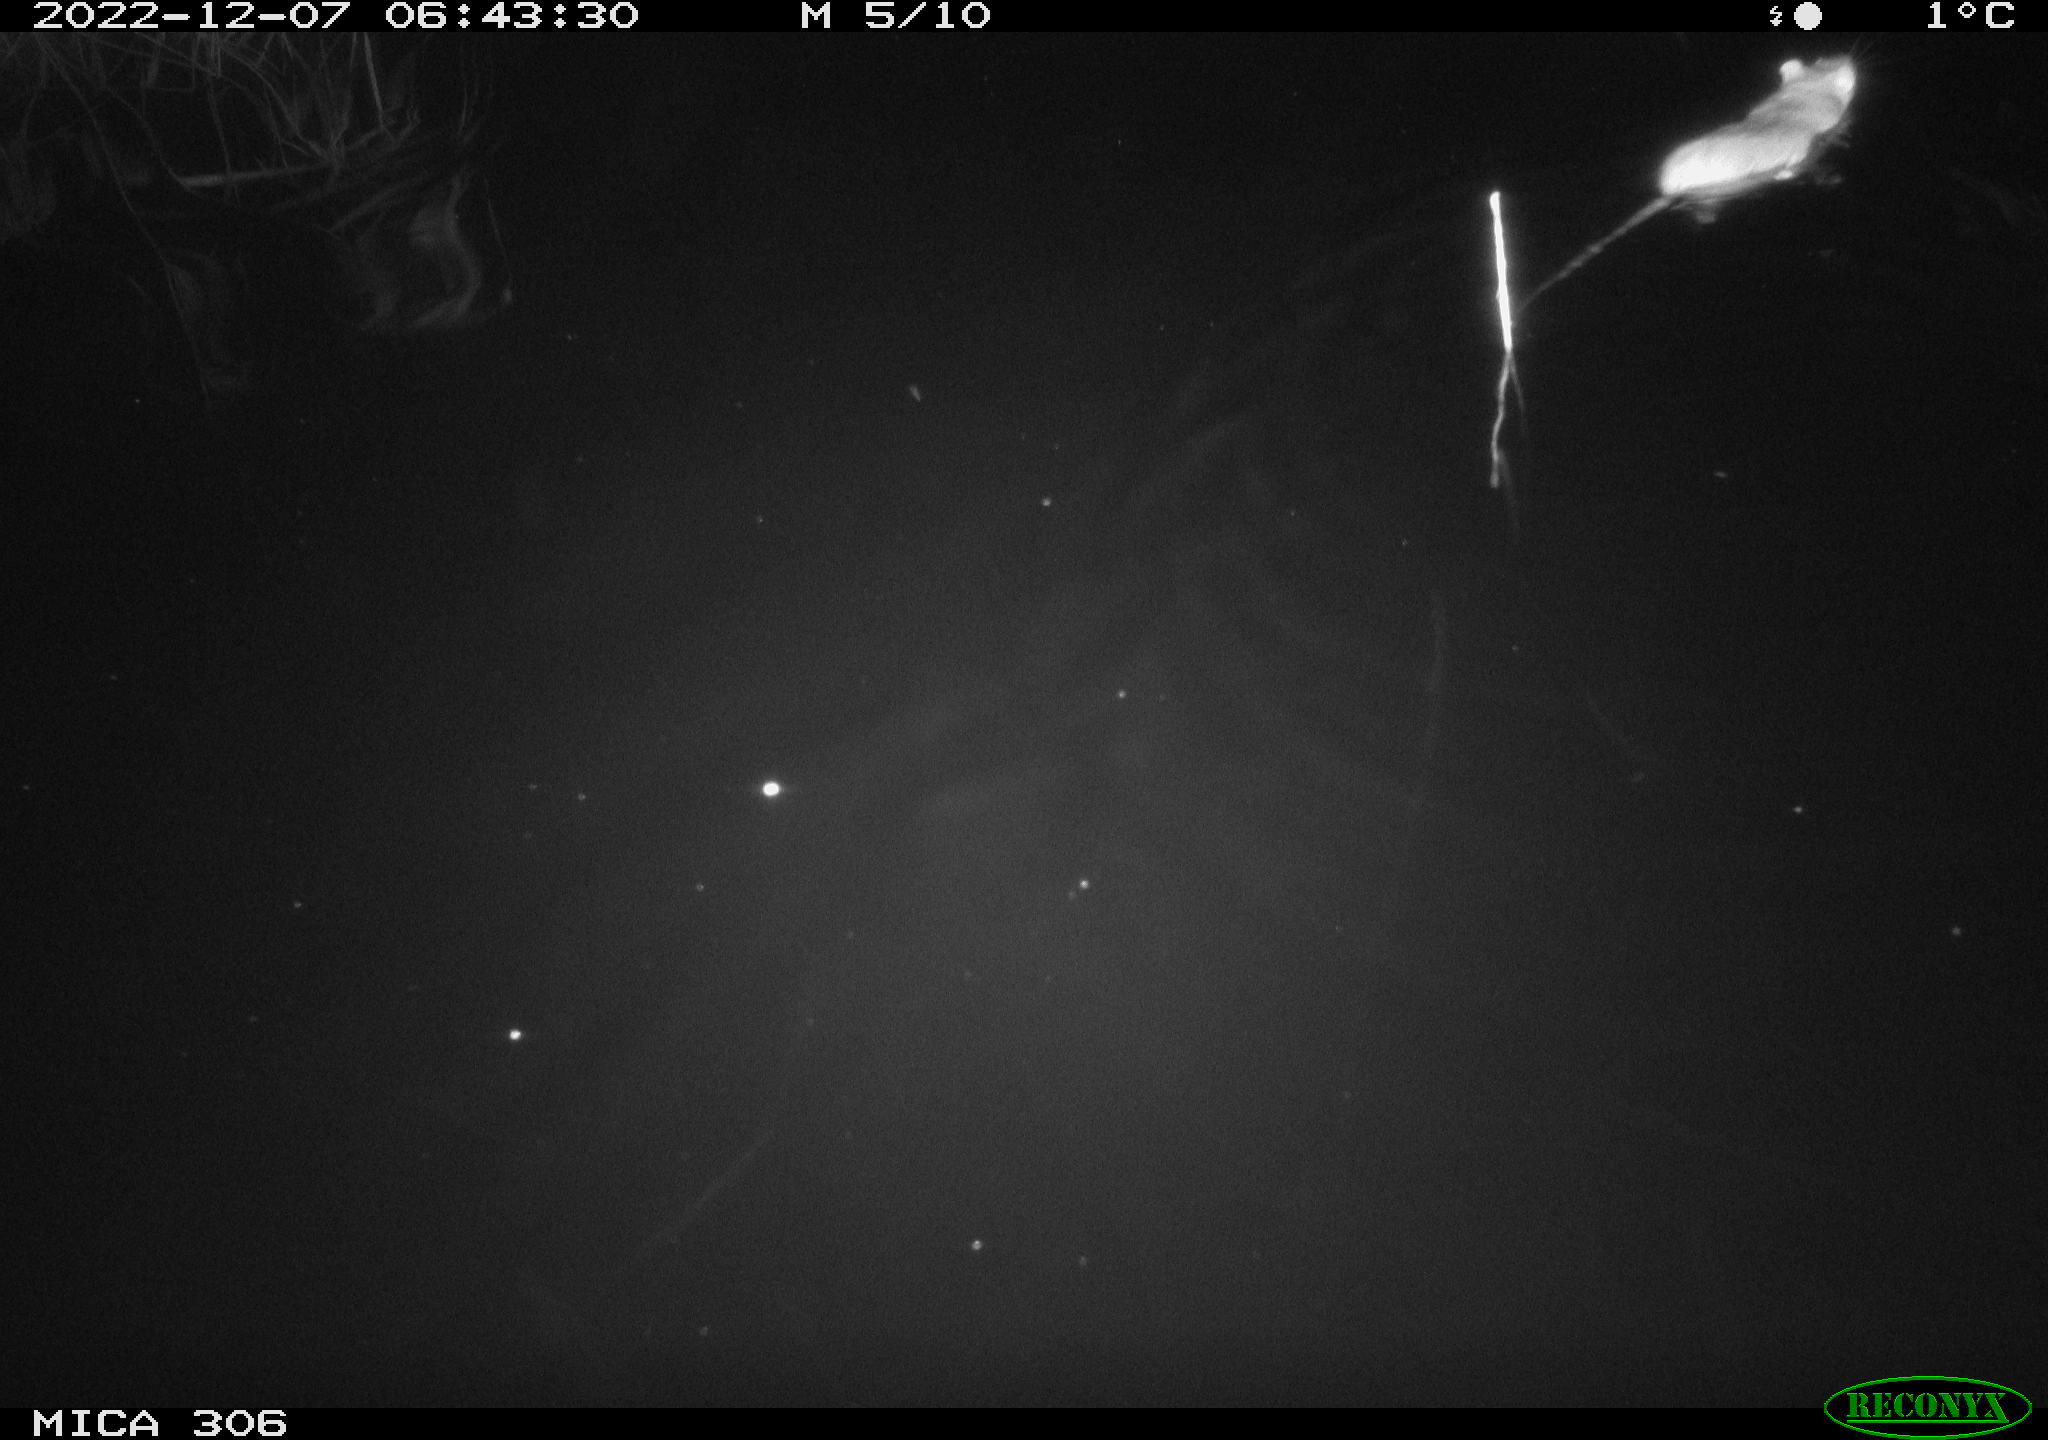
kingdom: Animalia
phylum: Chordata
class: Mammalia
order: Rodentia
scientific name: Rodentia
